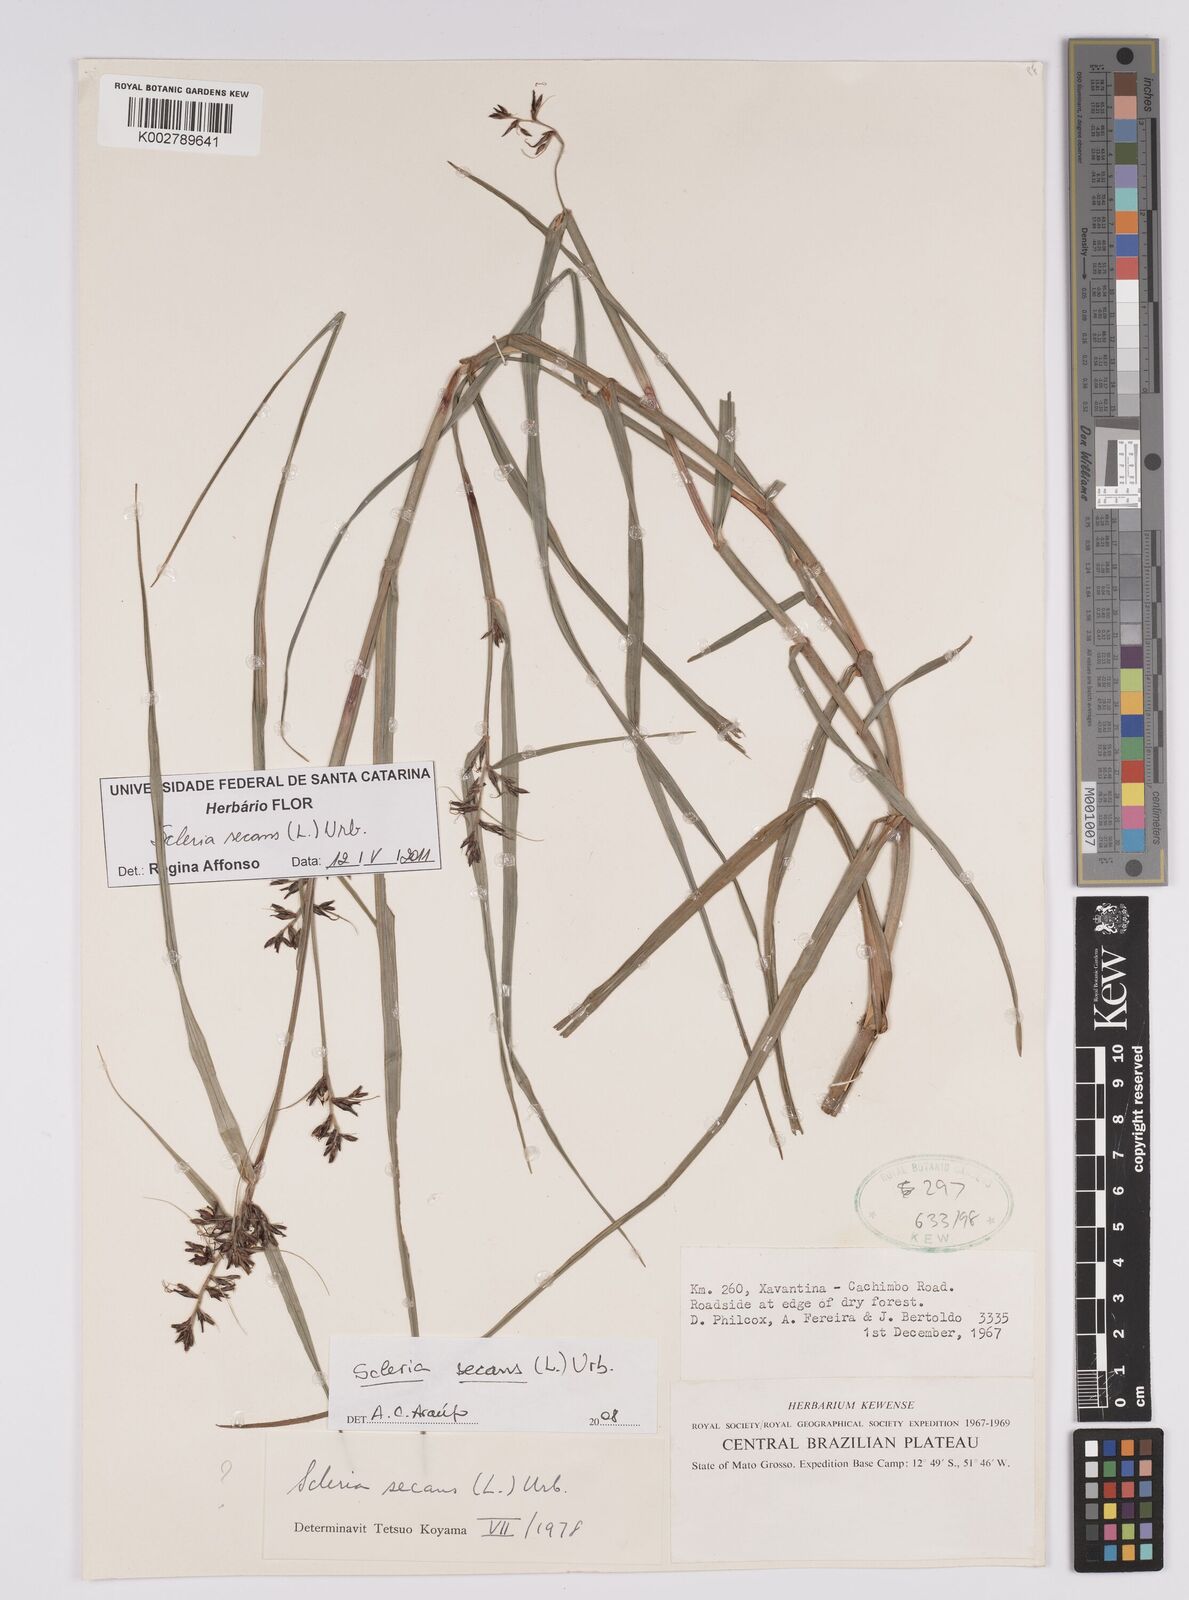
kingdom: Plantae
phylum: Tracheophyta
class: Liliopsida
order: Poales
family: Cyperaceae
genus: Scleria
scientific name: Scleria secans
